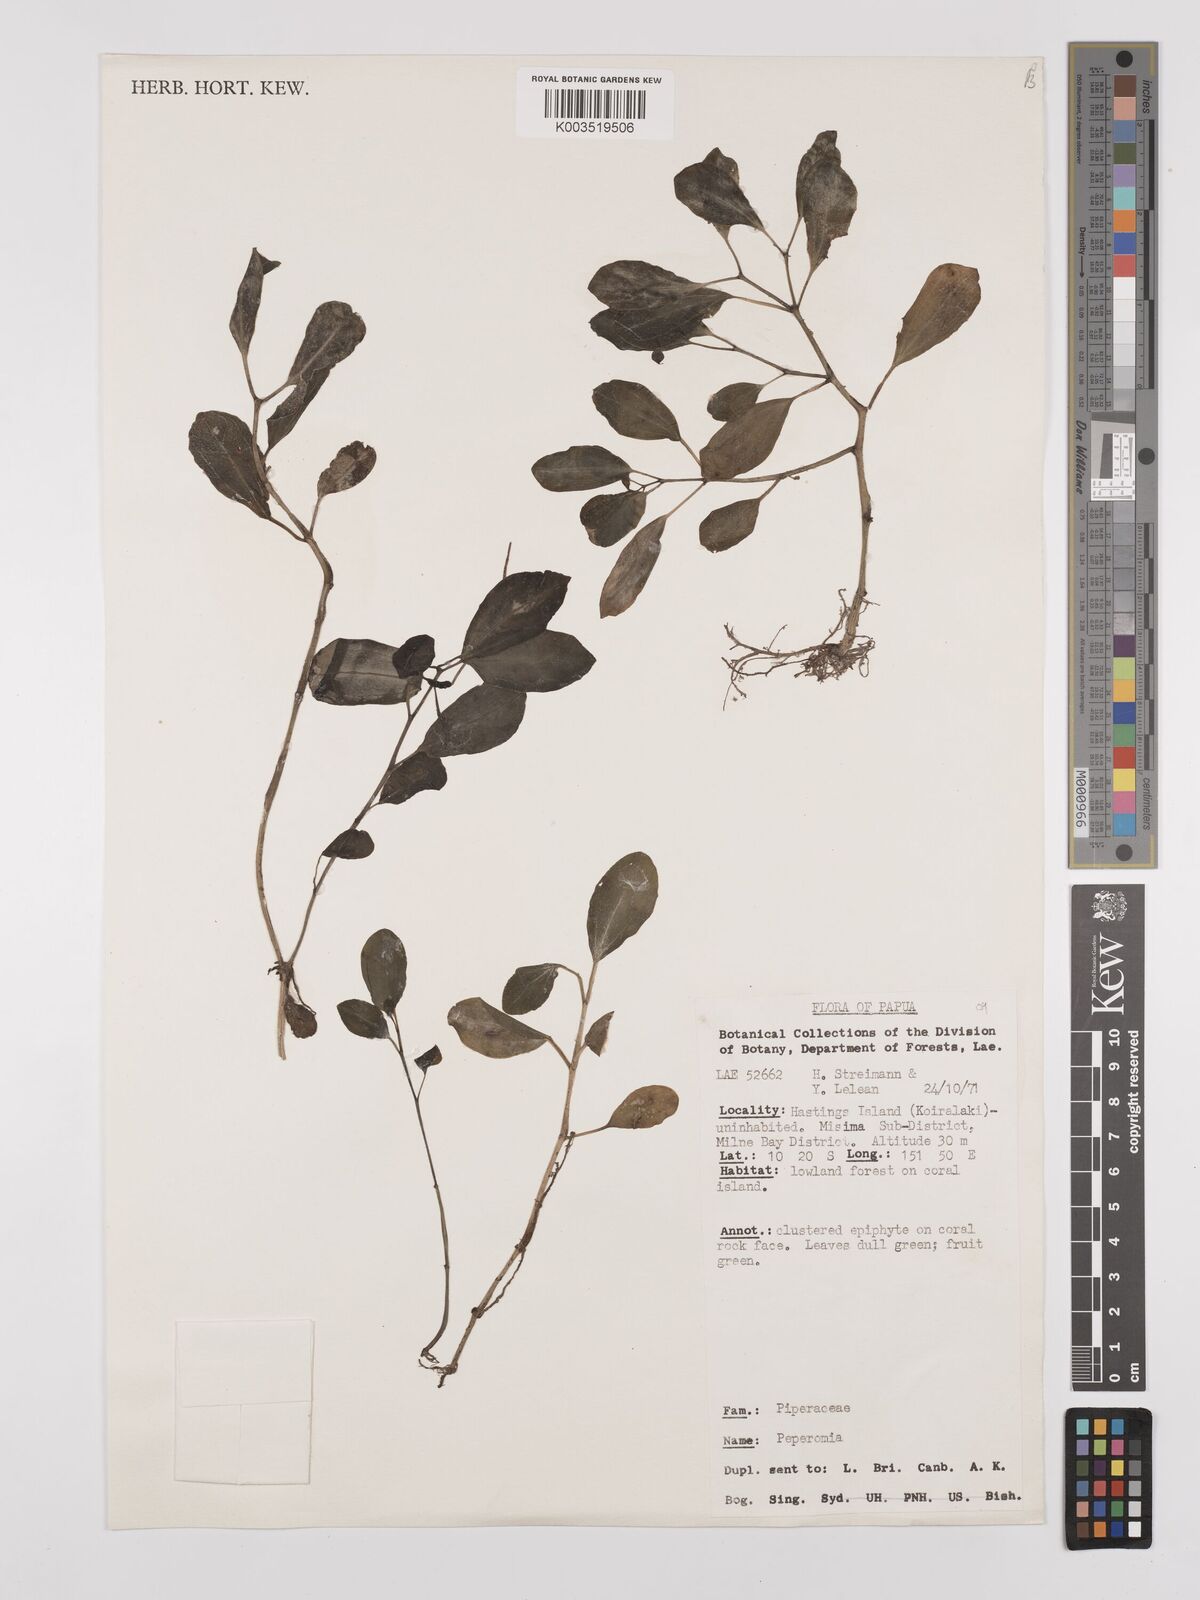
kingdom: Plantae
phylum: Tracheophyta
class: Magnoliopsida
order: Piperales
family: Piperaceae
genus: Peperomia
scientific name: Peperomia
